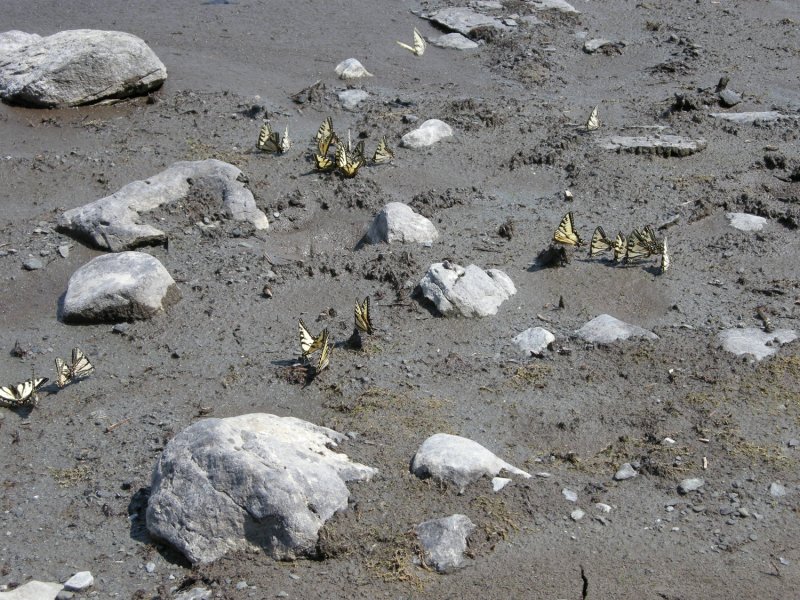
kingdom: Animalia
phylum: Arthropoda
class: Insecta
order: Lepidoptera
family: Papilionidae
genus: Pterourus
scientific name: Pterourus canadensis
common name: Canadian Tiger Swallowtail
